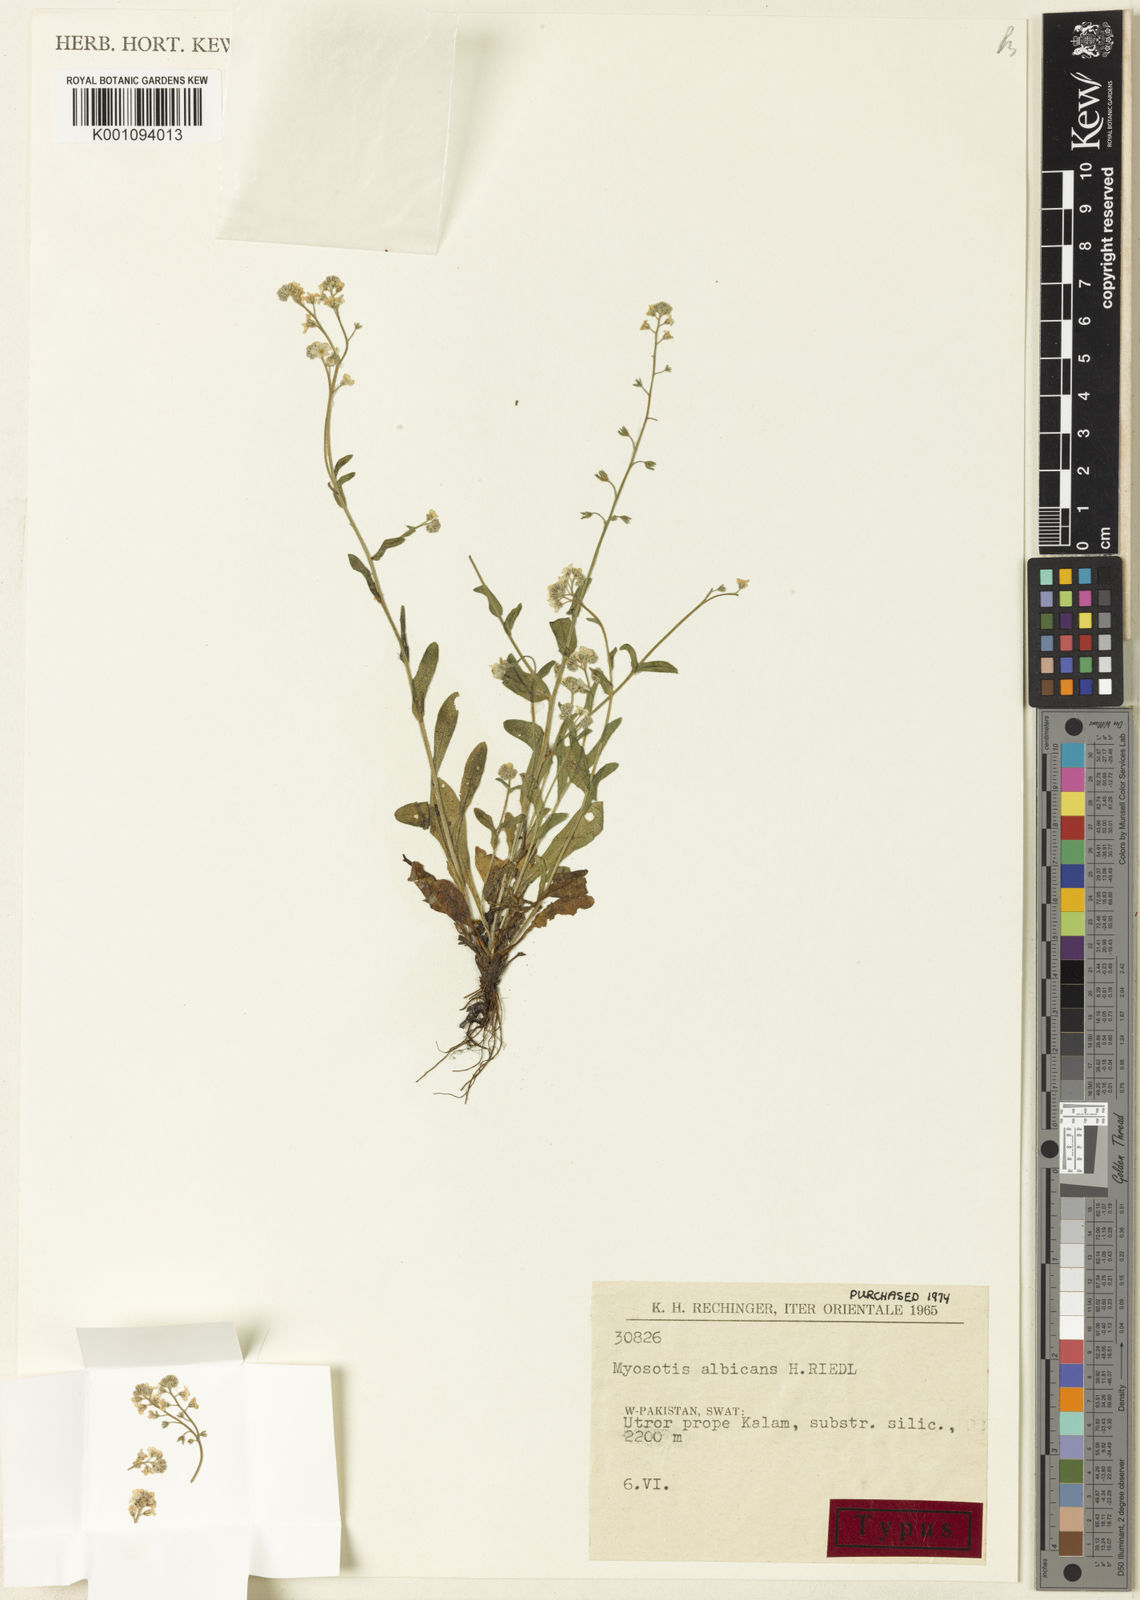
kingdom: Plantae
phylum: Tracheophyta
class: Magnoliopsida
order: Boraginales
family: Boraginaceae
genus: Myosotis
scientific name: Myosotis albicans
